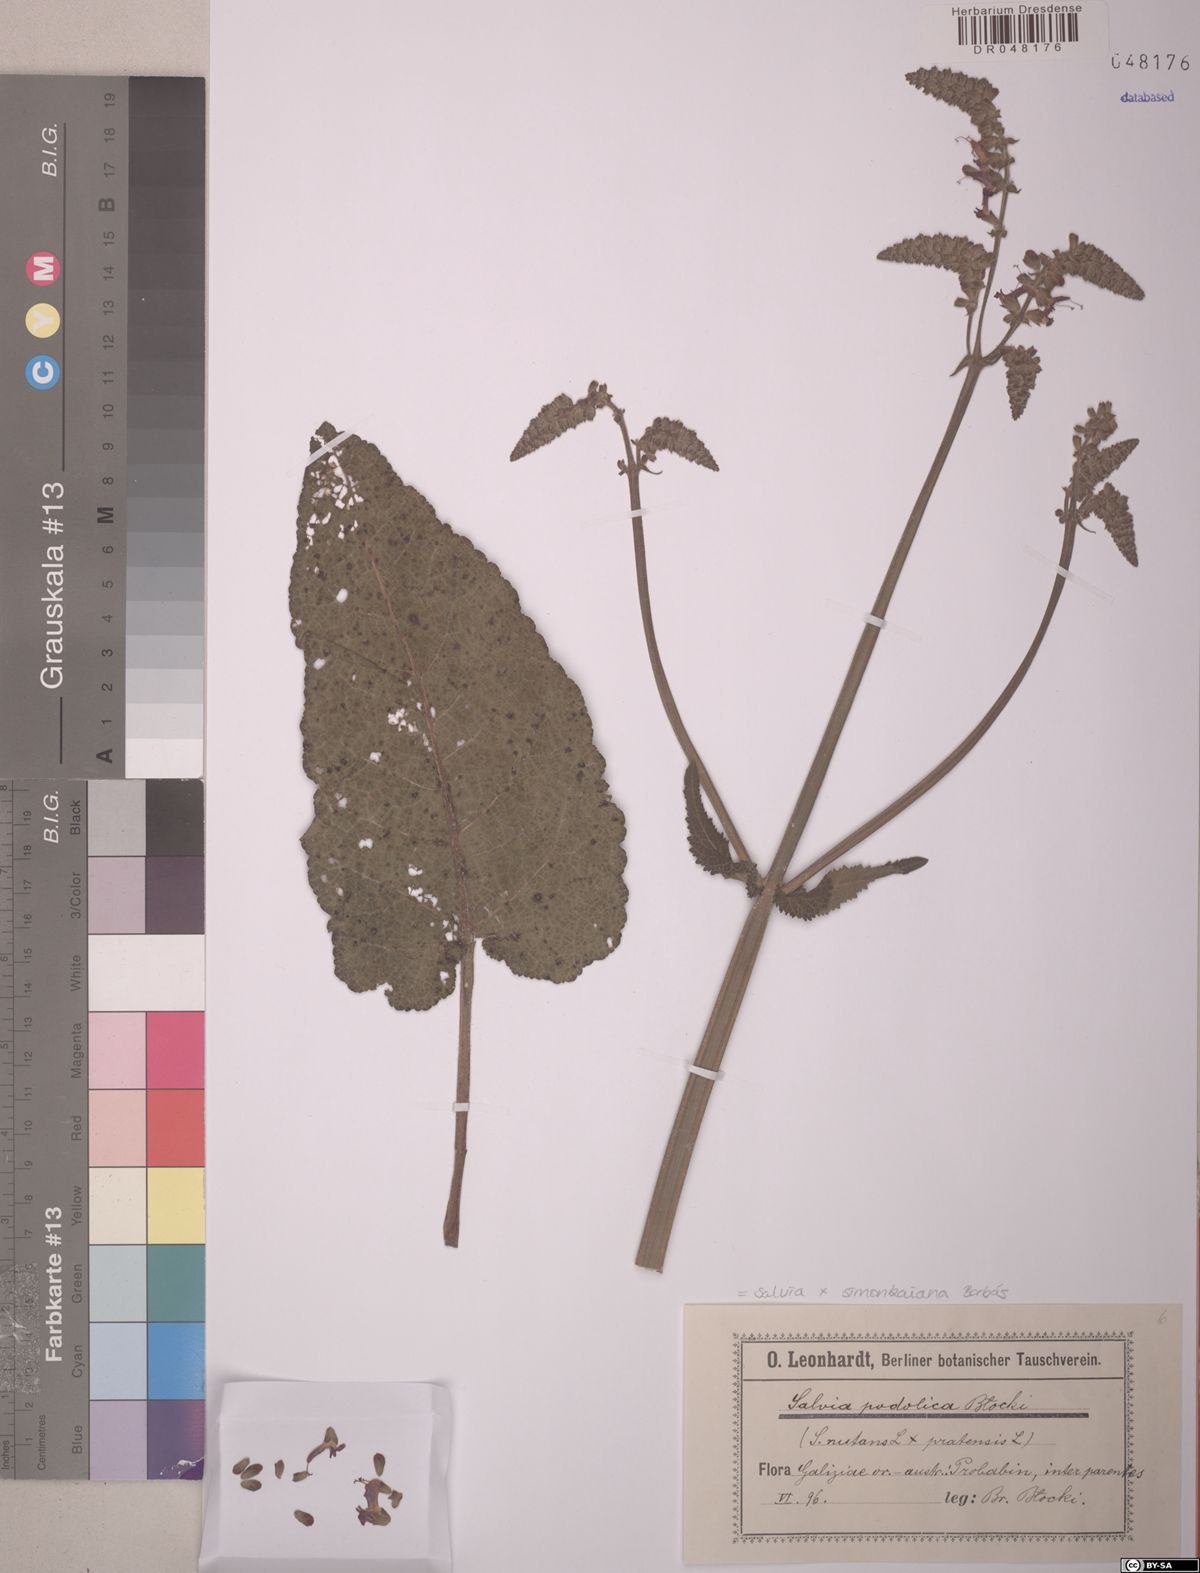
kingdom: Plantae
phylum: Tracheophyta
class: Magnoliopsida
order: Lamiales
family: Lamiaceae
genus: Salvia
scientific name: Salvia simonkaiana
